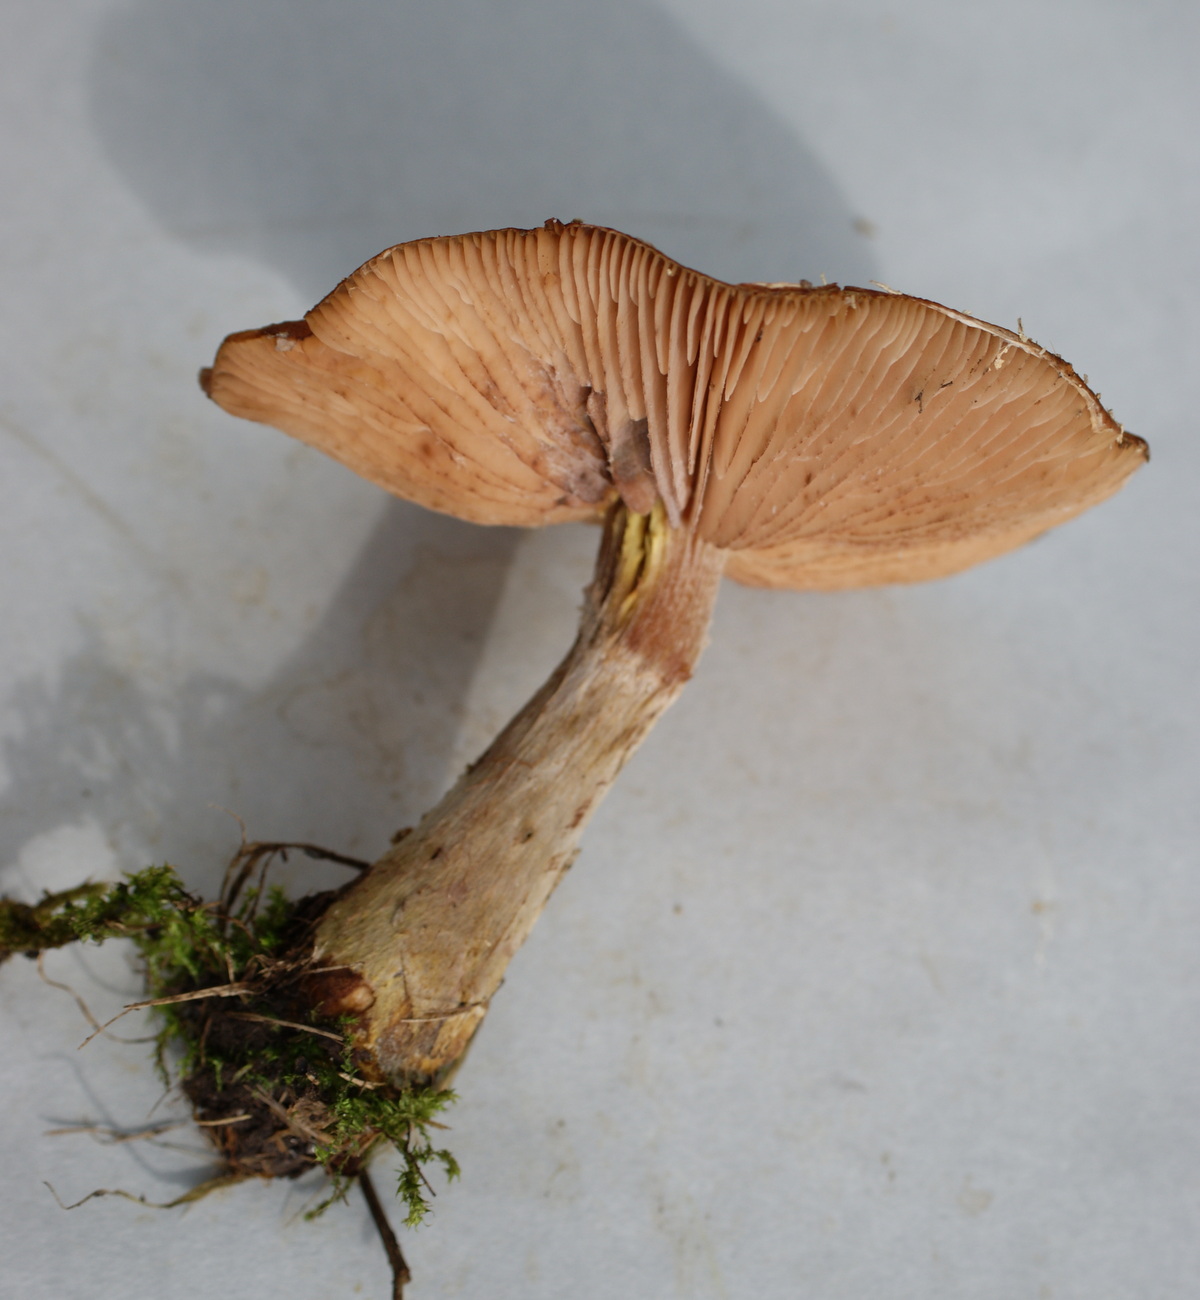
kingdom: Fungi
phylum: Basidiomycota
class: Agaricomycetes
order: Agaricales
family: Physalacriaceae
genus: Armillaria
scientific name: Armillaria lutea
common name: køllestokket honningsvamp
